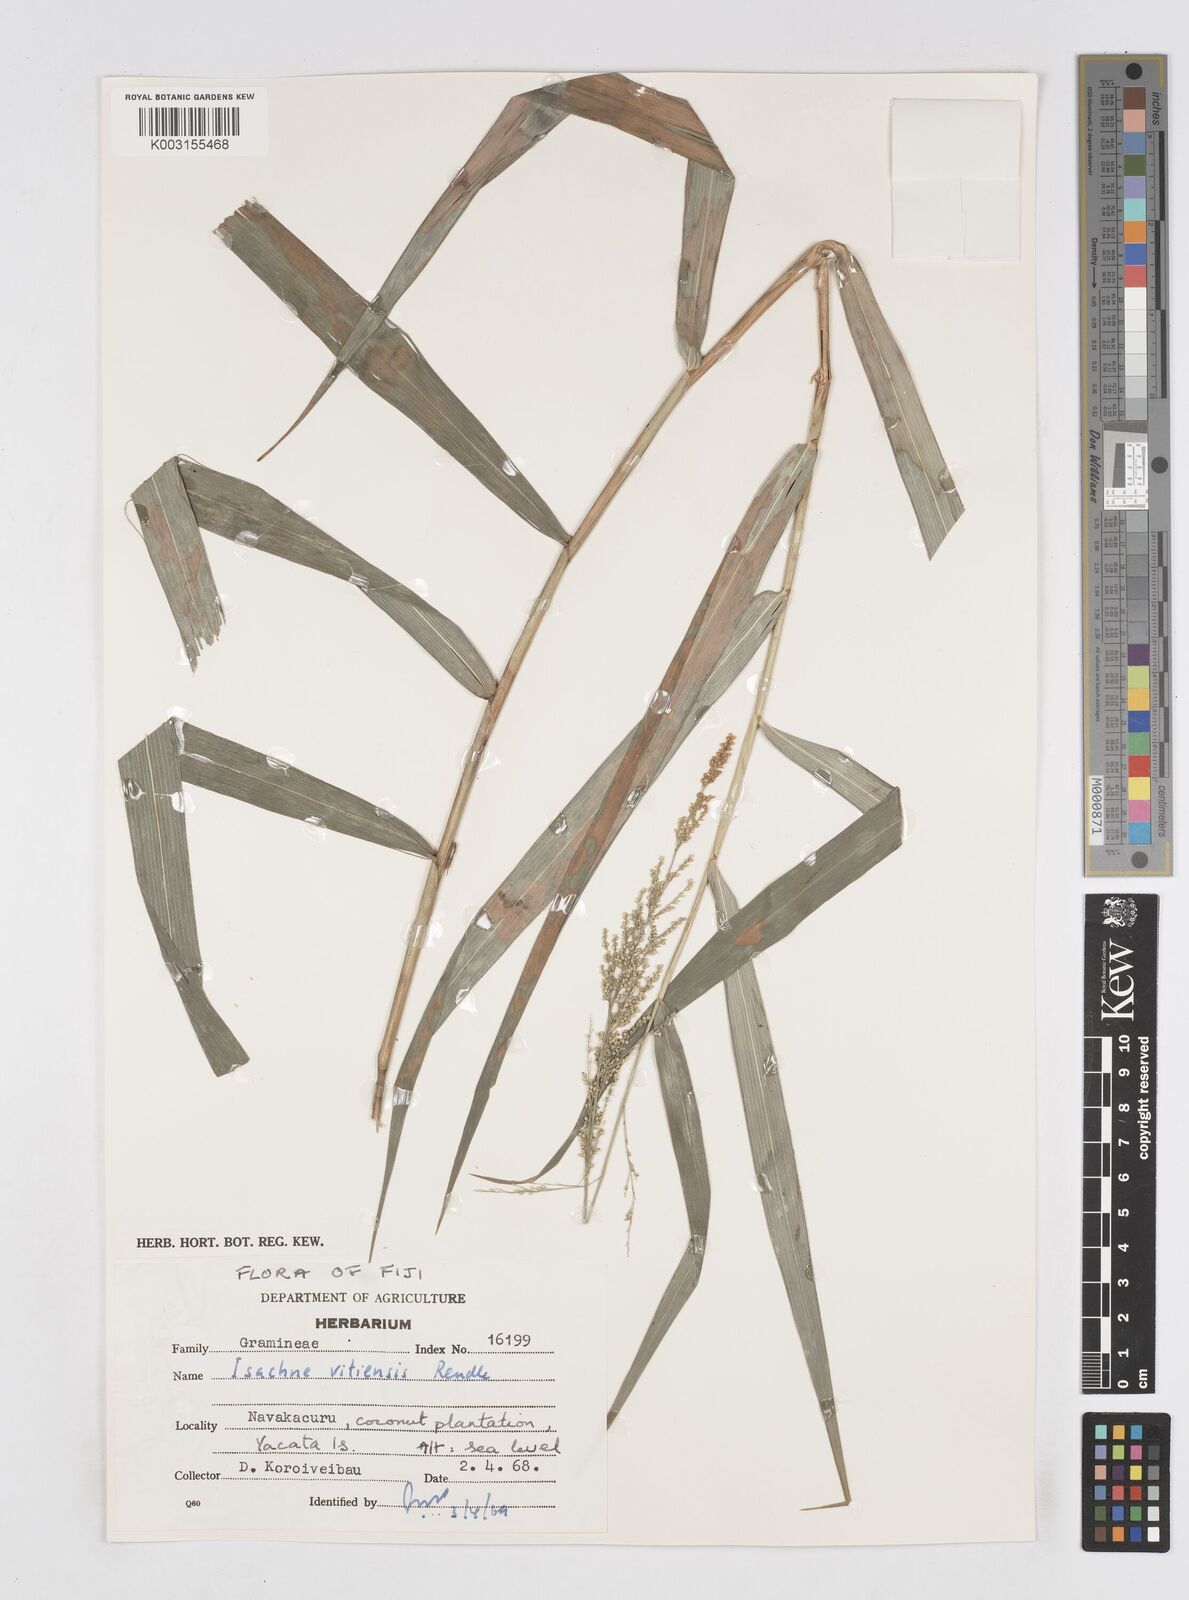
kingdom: Plantae
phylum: Tracheophyta
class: Liliopsida
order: Poales
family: Poaceae
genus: Isachne
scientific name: Isachne vitiensis
